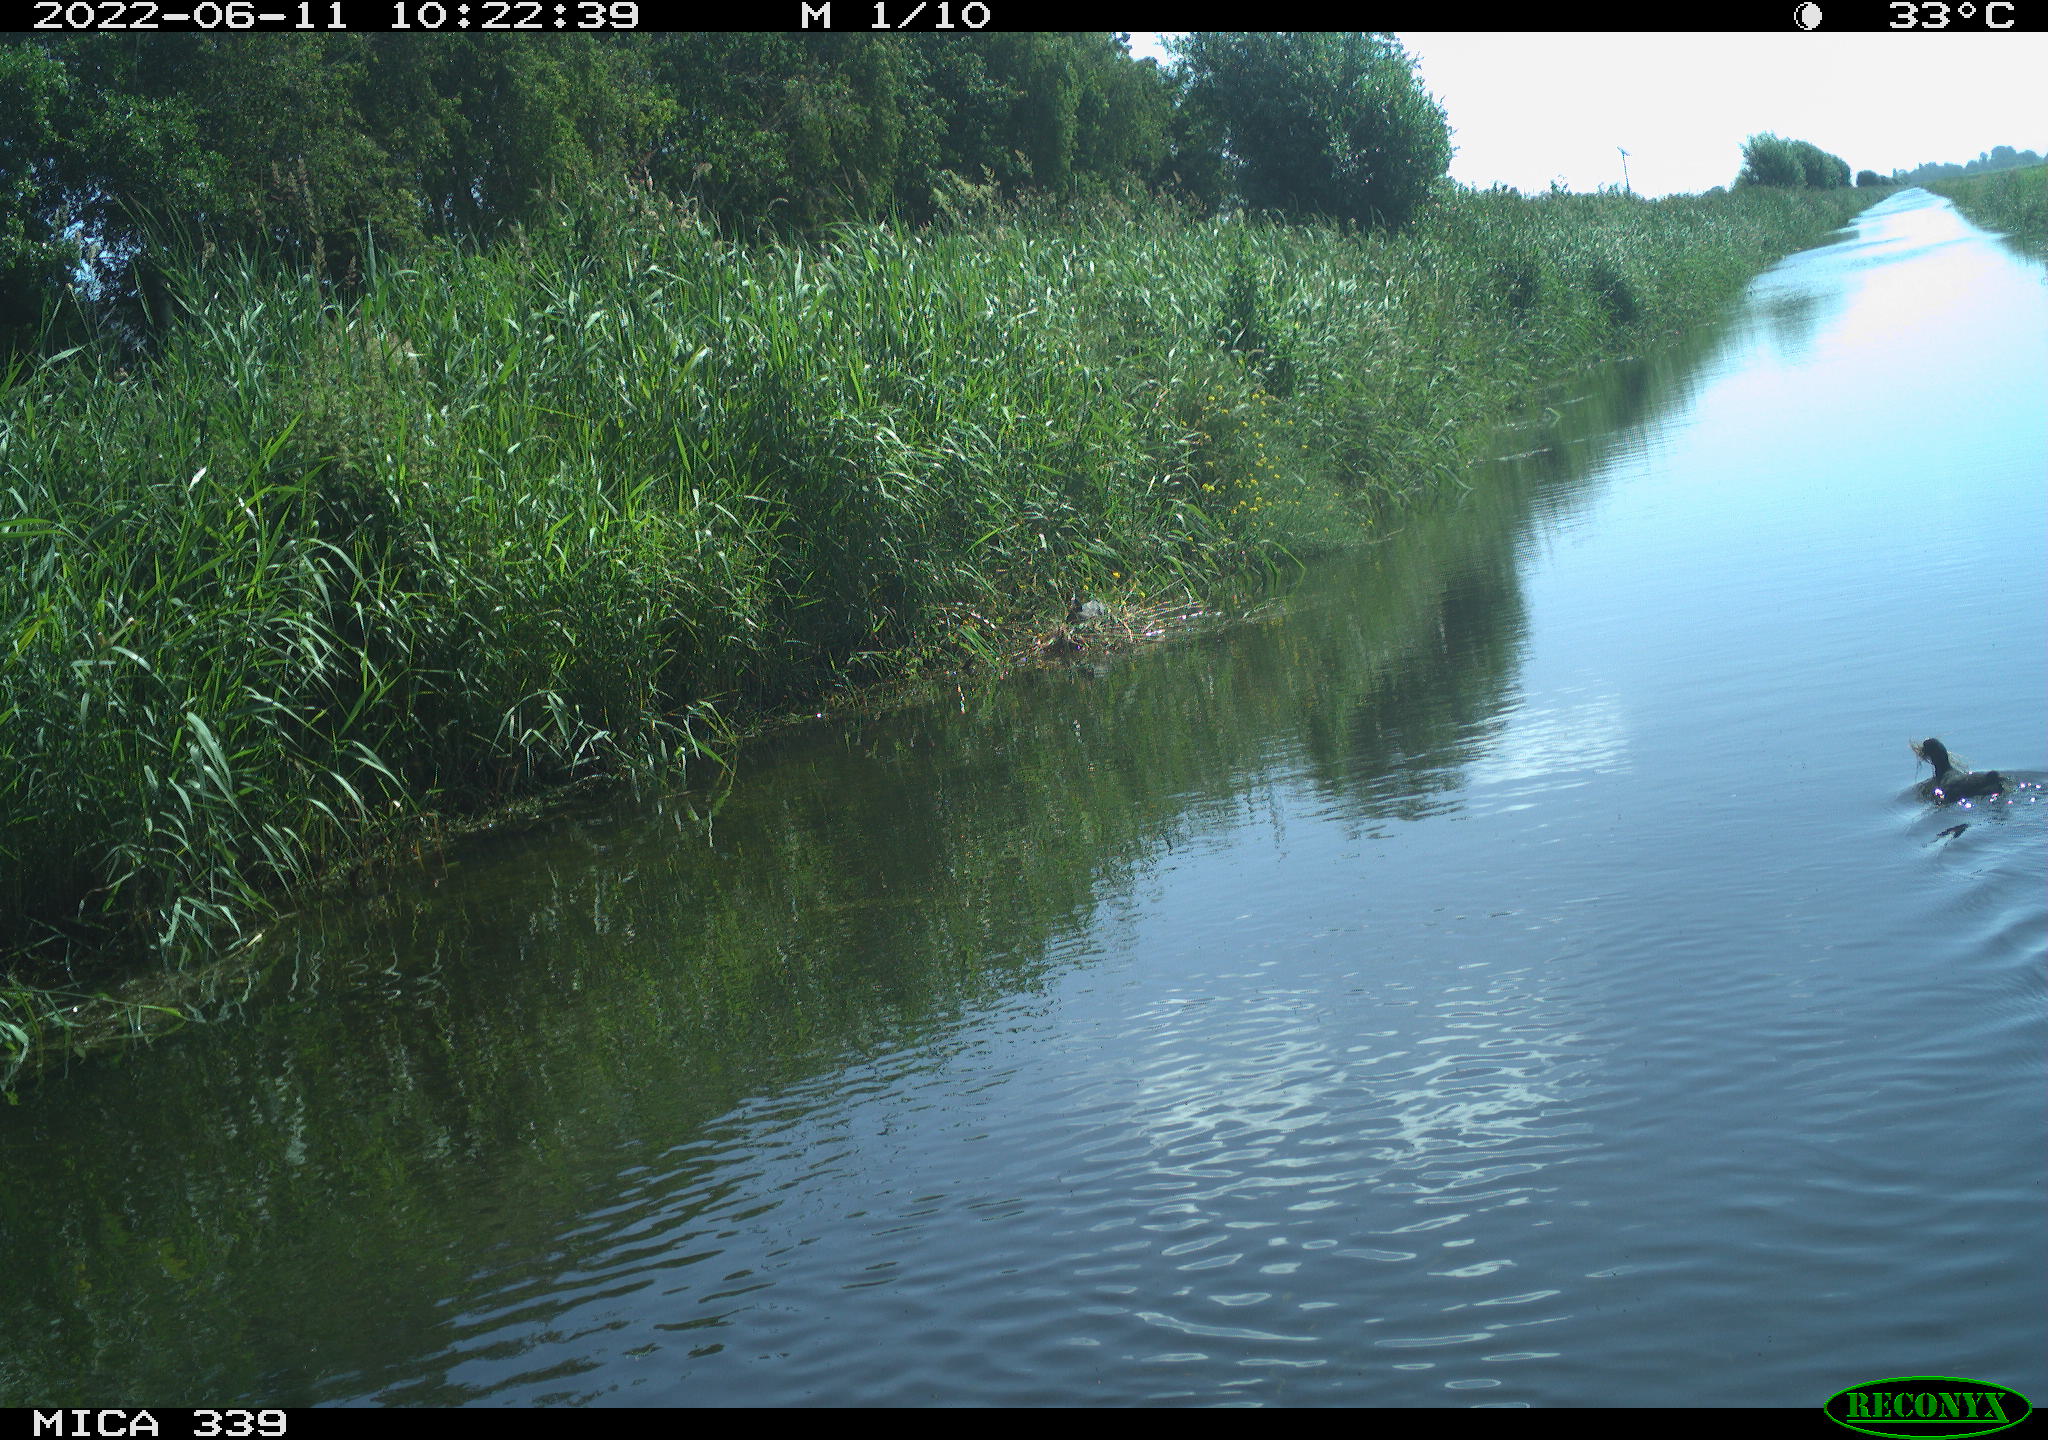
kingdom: Animalia
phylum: Chordata
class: Aves
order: Gruiformes
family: Rallidae
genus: Fulica
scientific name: Fulica atra
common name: Eurasian coot
